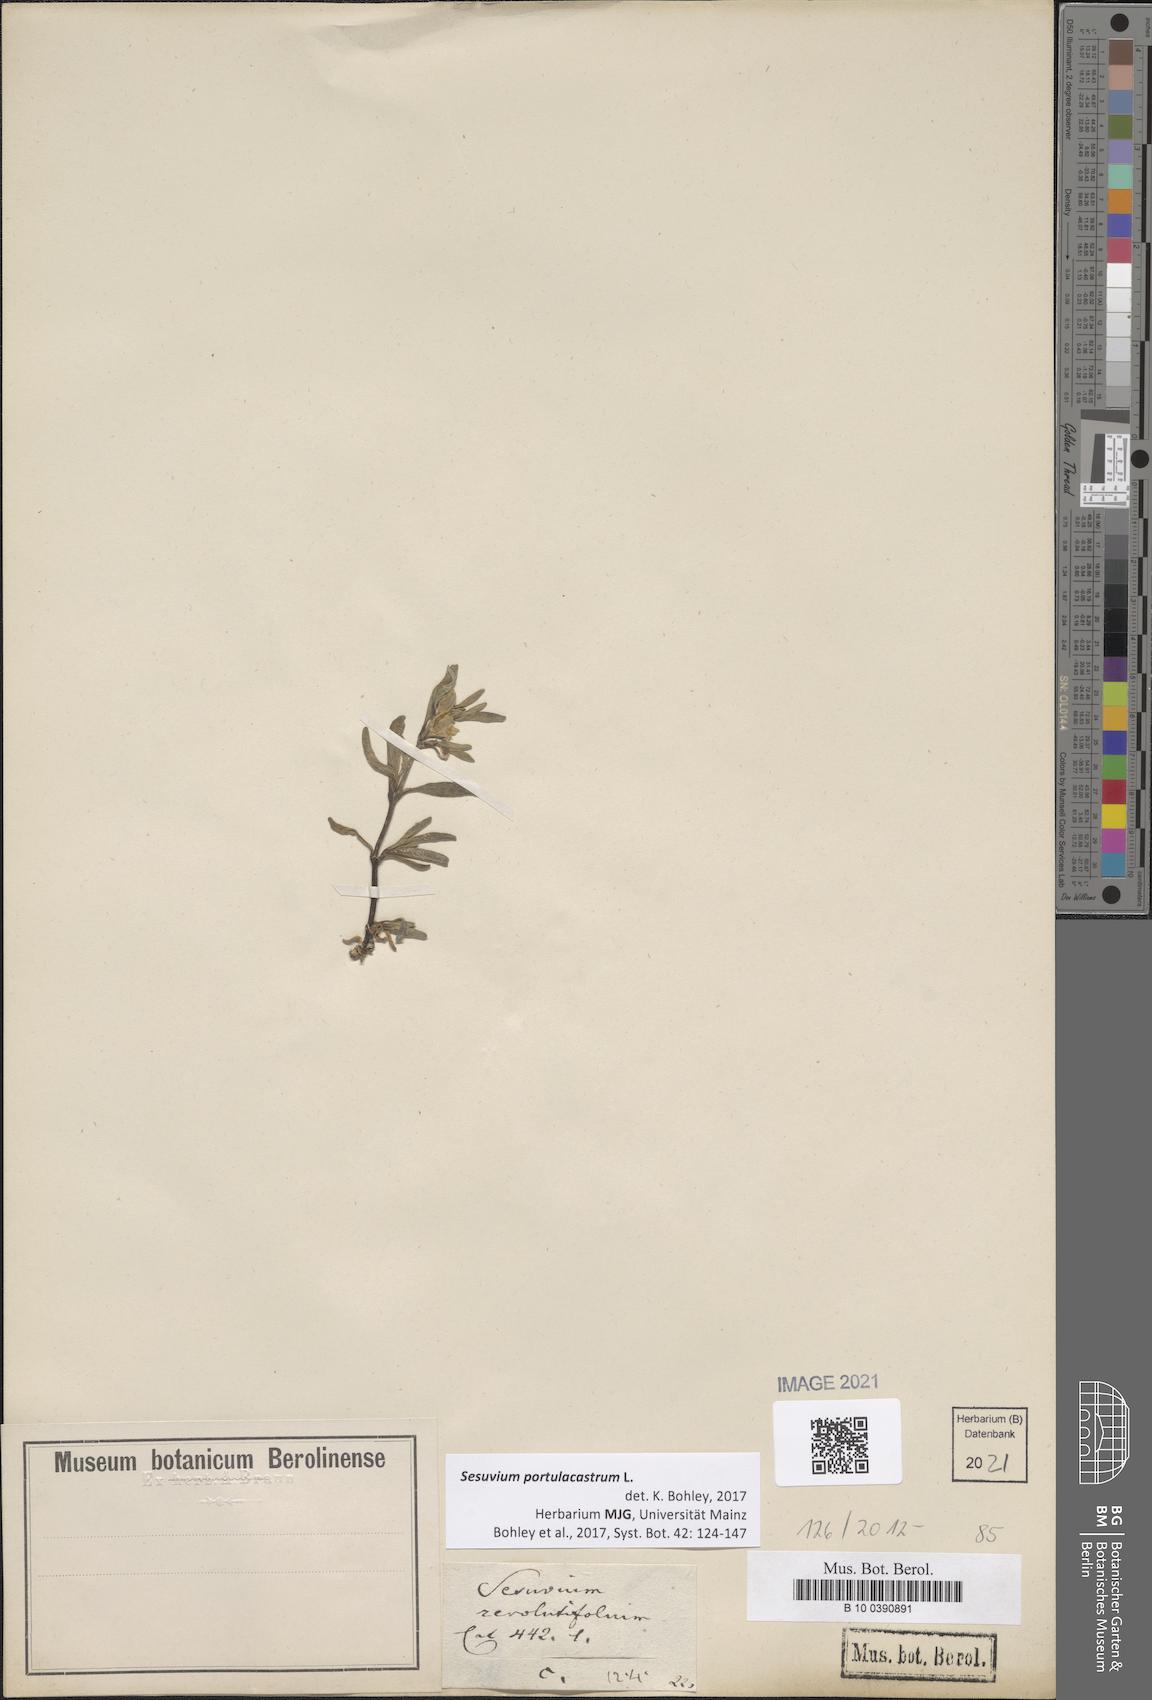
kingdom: Plantae
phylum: Tracheophyta
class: Magnoliopsida
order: Caryophyllales
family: Aizoaceae
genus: Sesuvium
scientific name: Sesuvium portulacastrum
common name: Sea-purslane
